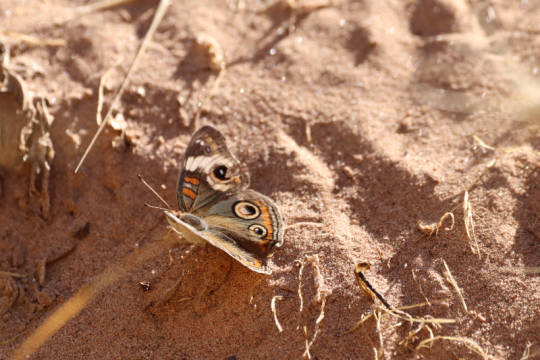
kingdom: Animalia
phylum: Arthropoda
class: Insecta
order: Lepidoptera
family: Nymphalidae
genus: Junonia
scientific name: Junonia coenia
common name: Common Buckeye
